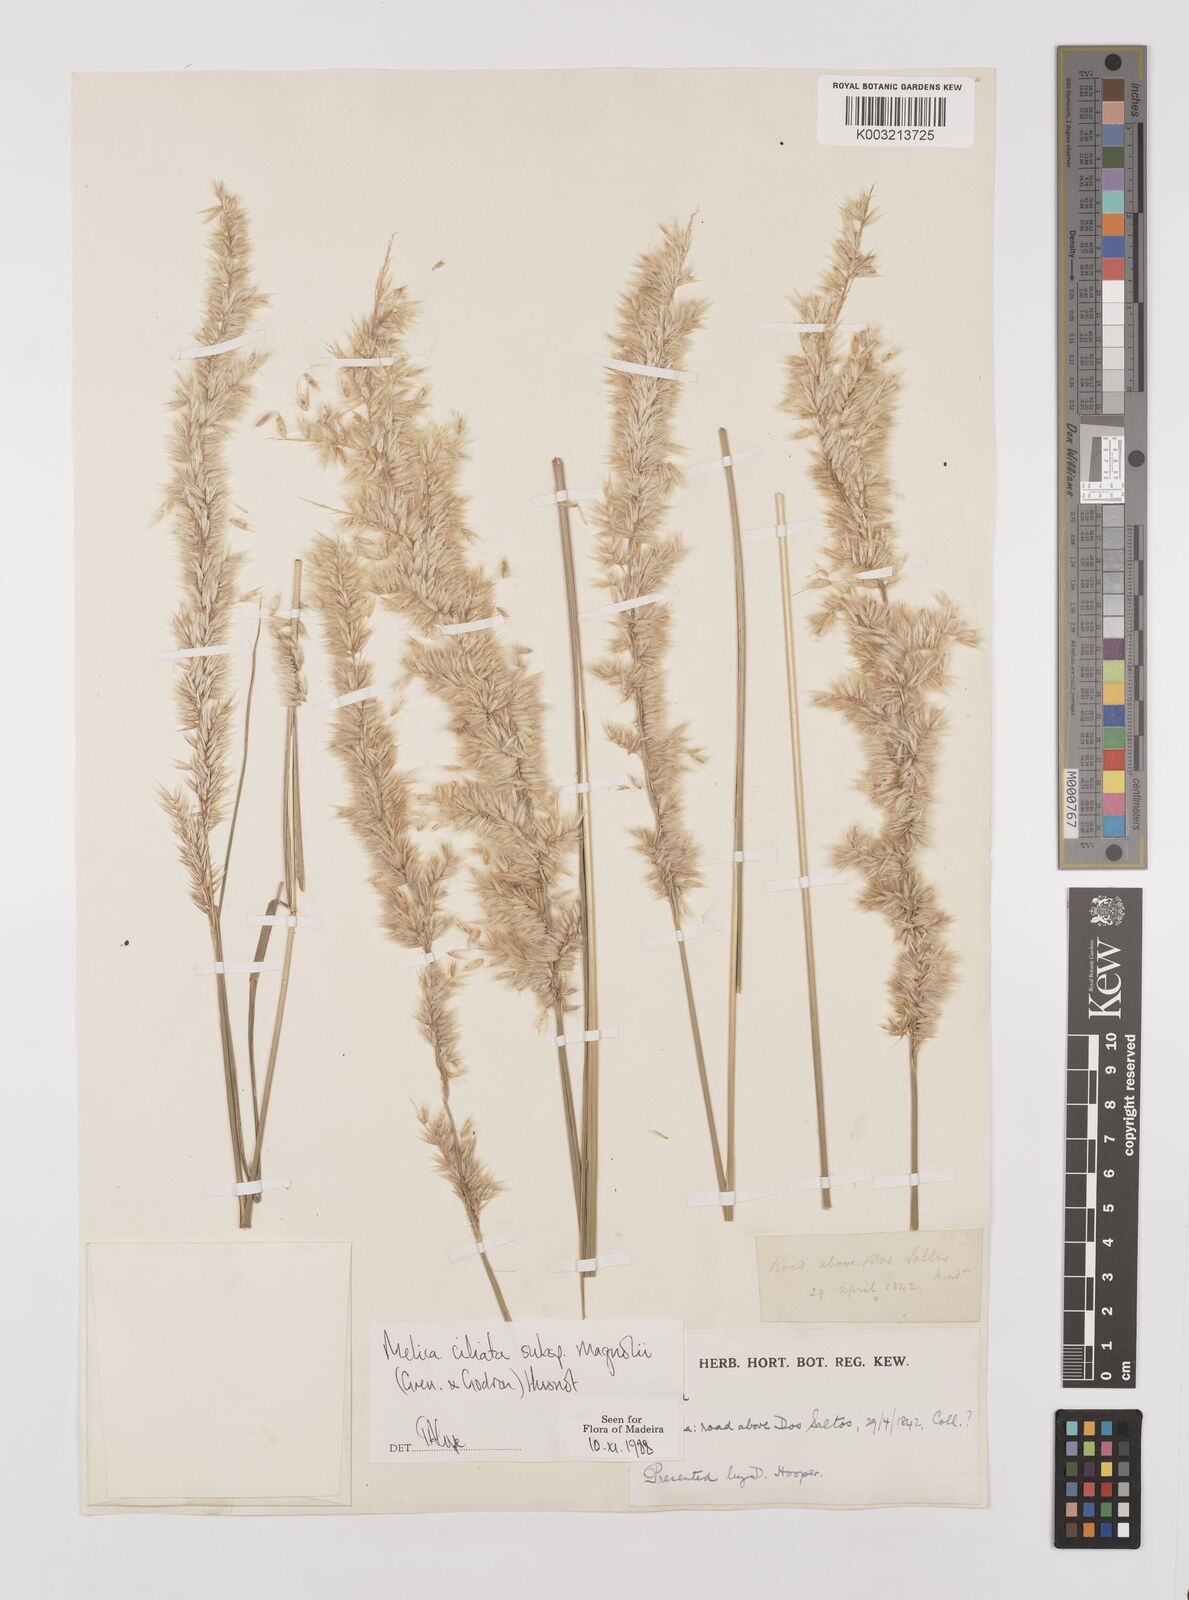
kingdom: Plantae
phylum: Tracheophyta
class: Liliopsida
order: Poales
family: Poaceae
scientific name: Poaceae
